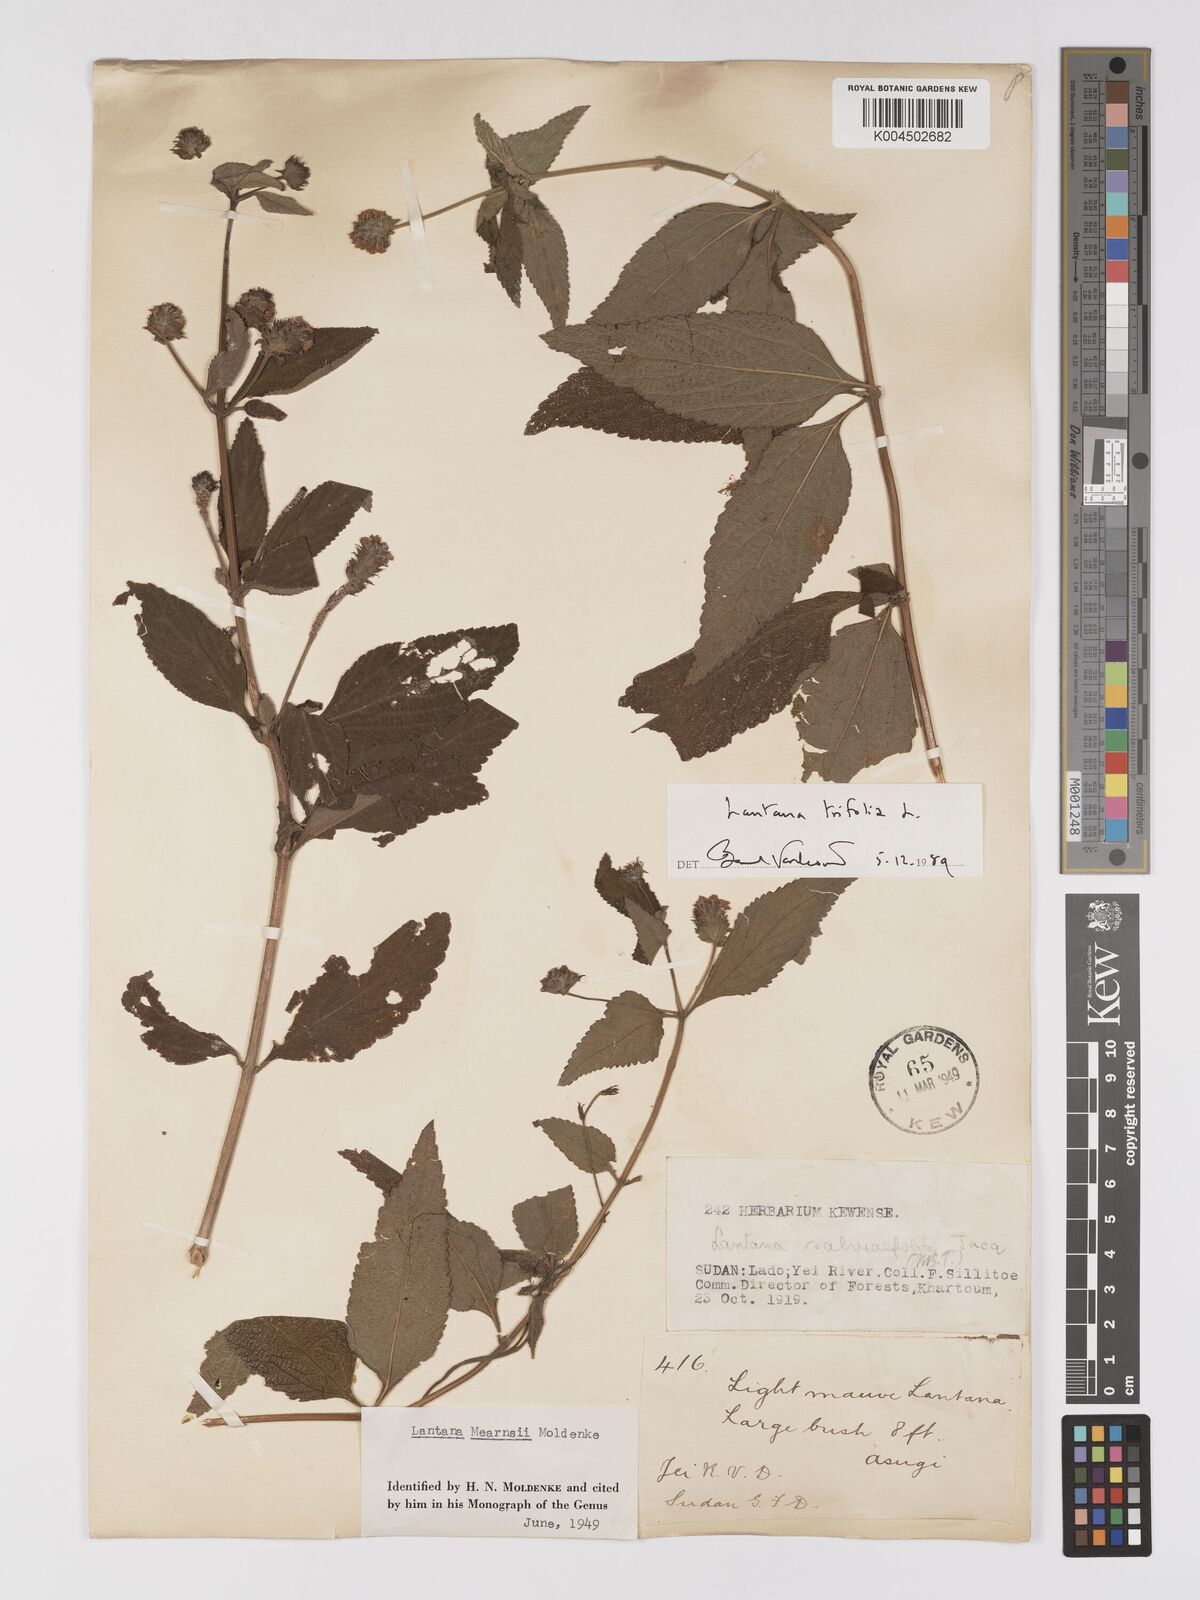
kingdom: Plantae
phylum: Tracheophyta
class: Magnoliopsida
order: Lamiales
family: Verbenaceae
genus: Lantana
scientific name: Lantana trifolia
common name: Sweet-sage
